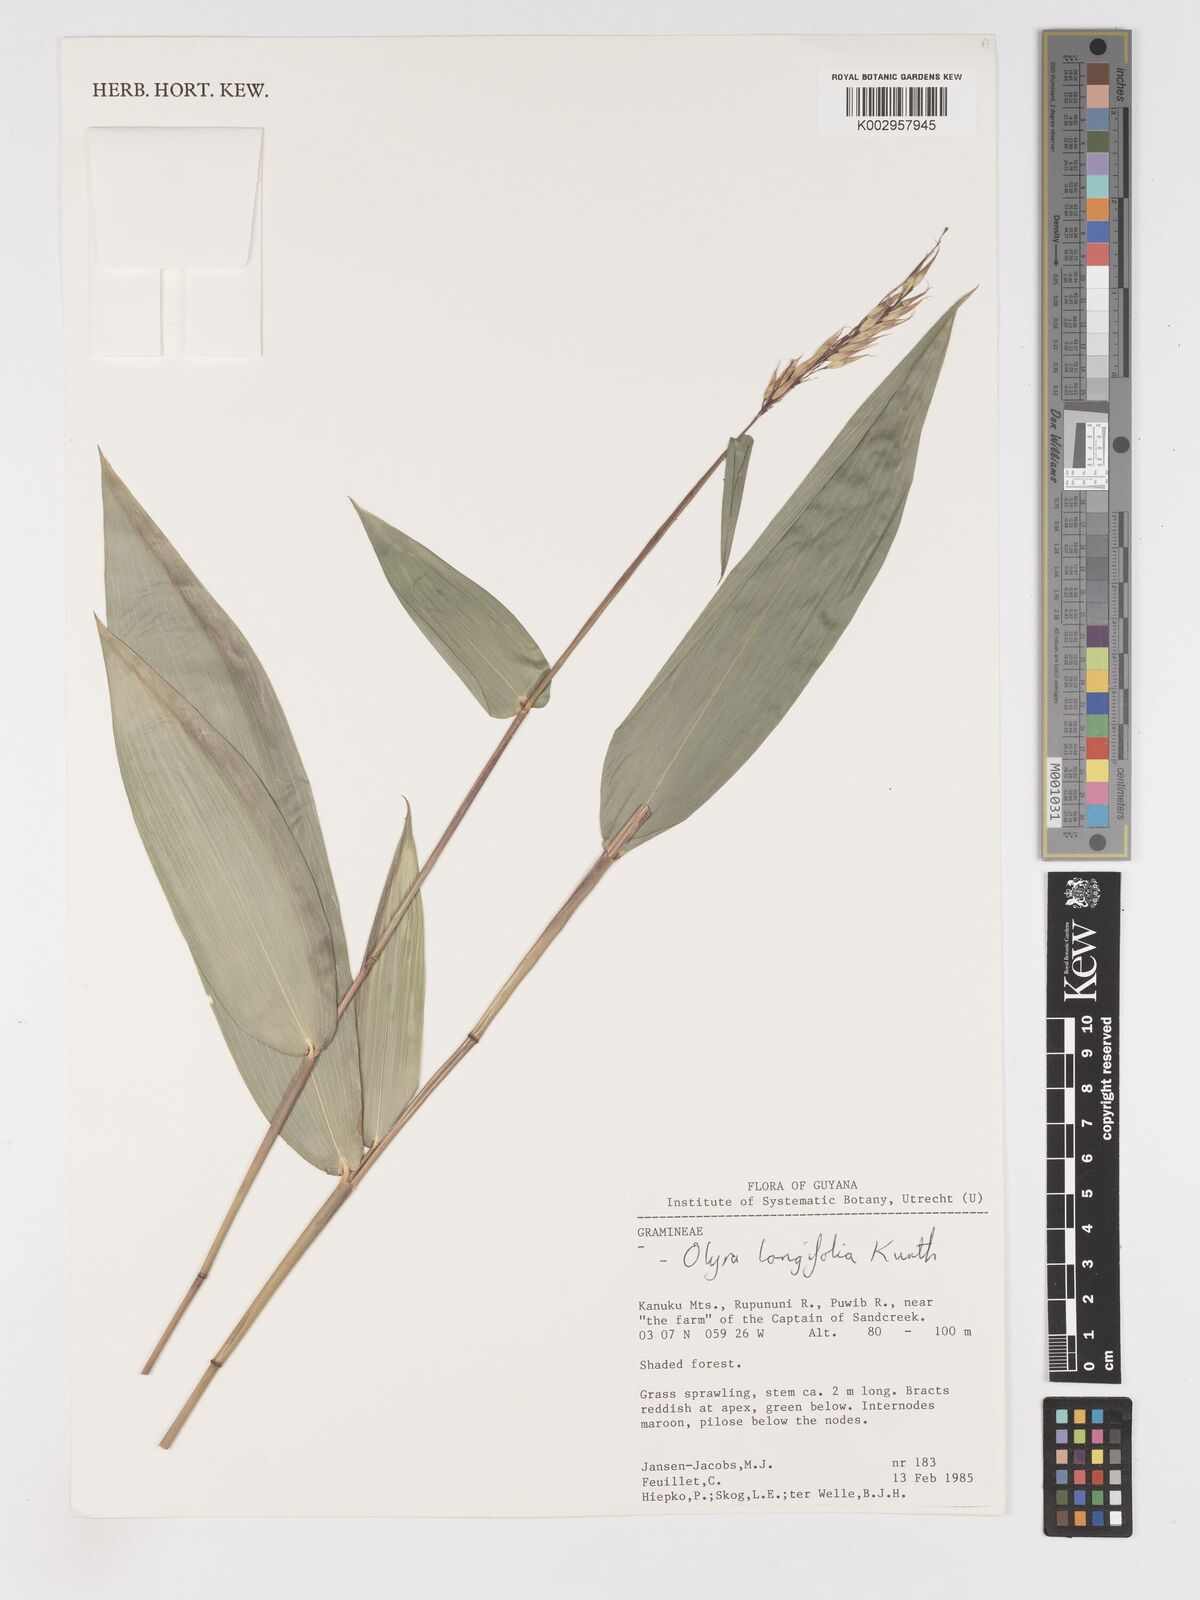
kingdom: Plantae
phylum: Tracheophyta
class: Liliopsida
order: Poales
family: Poaceae
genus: Olyra
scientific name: Olyra longifolia
